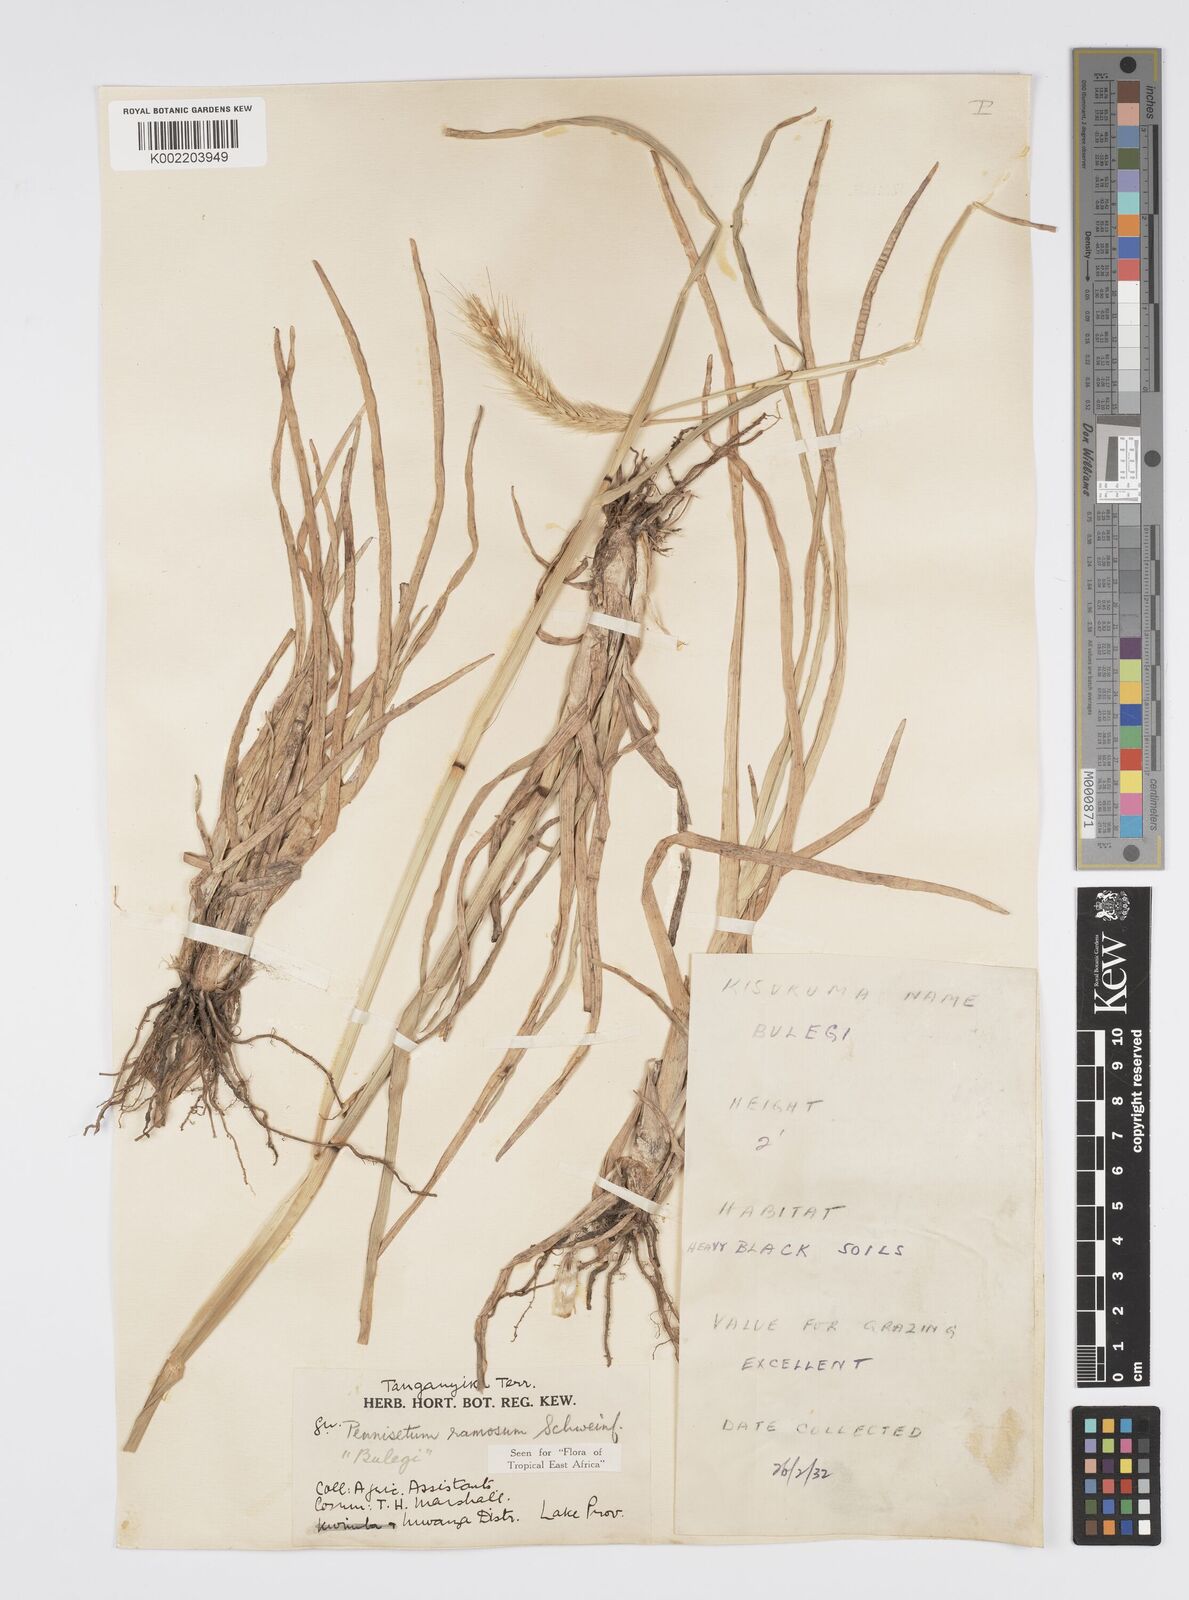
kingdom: Plantae
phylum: Tracheophyta
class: Liliopsida
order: Poales
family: Poaceae
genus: Cenchrus
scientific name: Cenchrus ramosus
